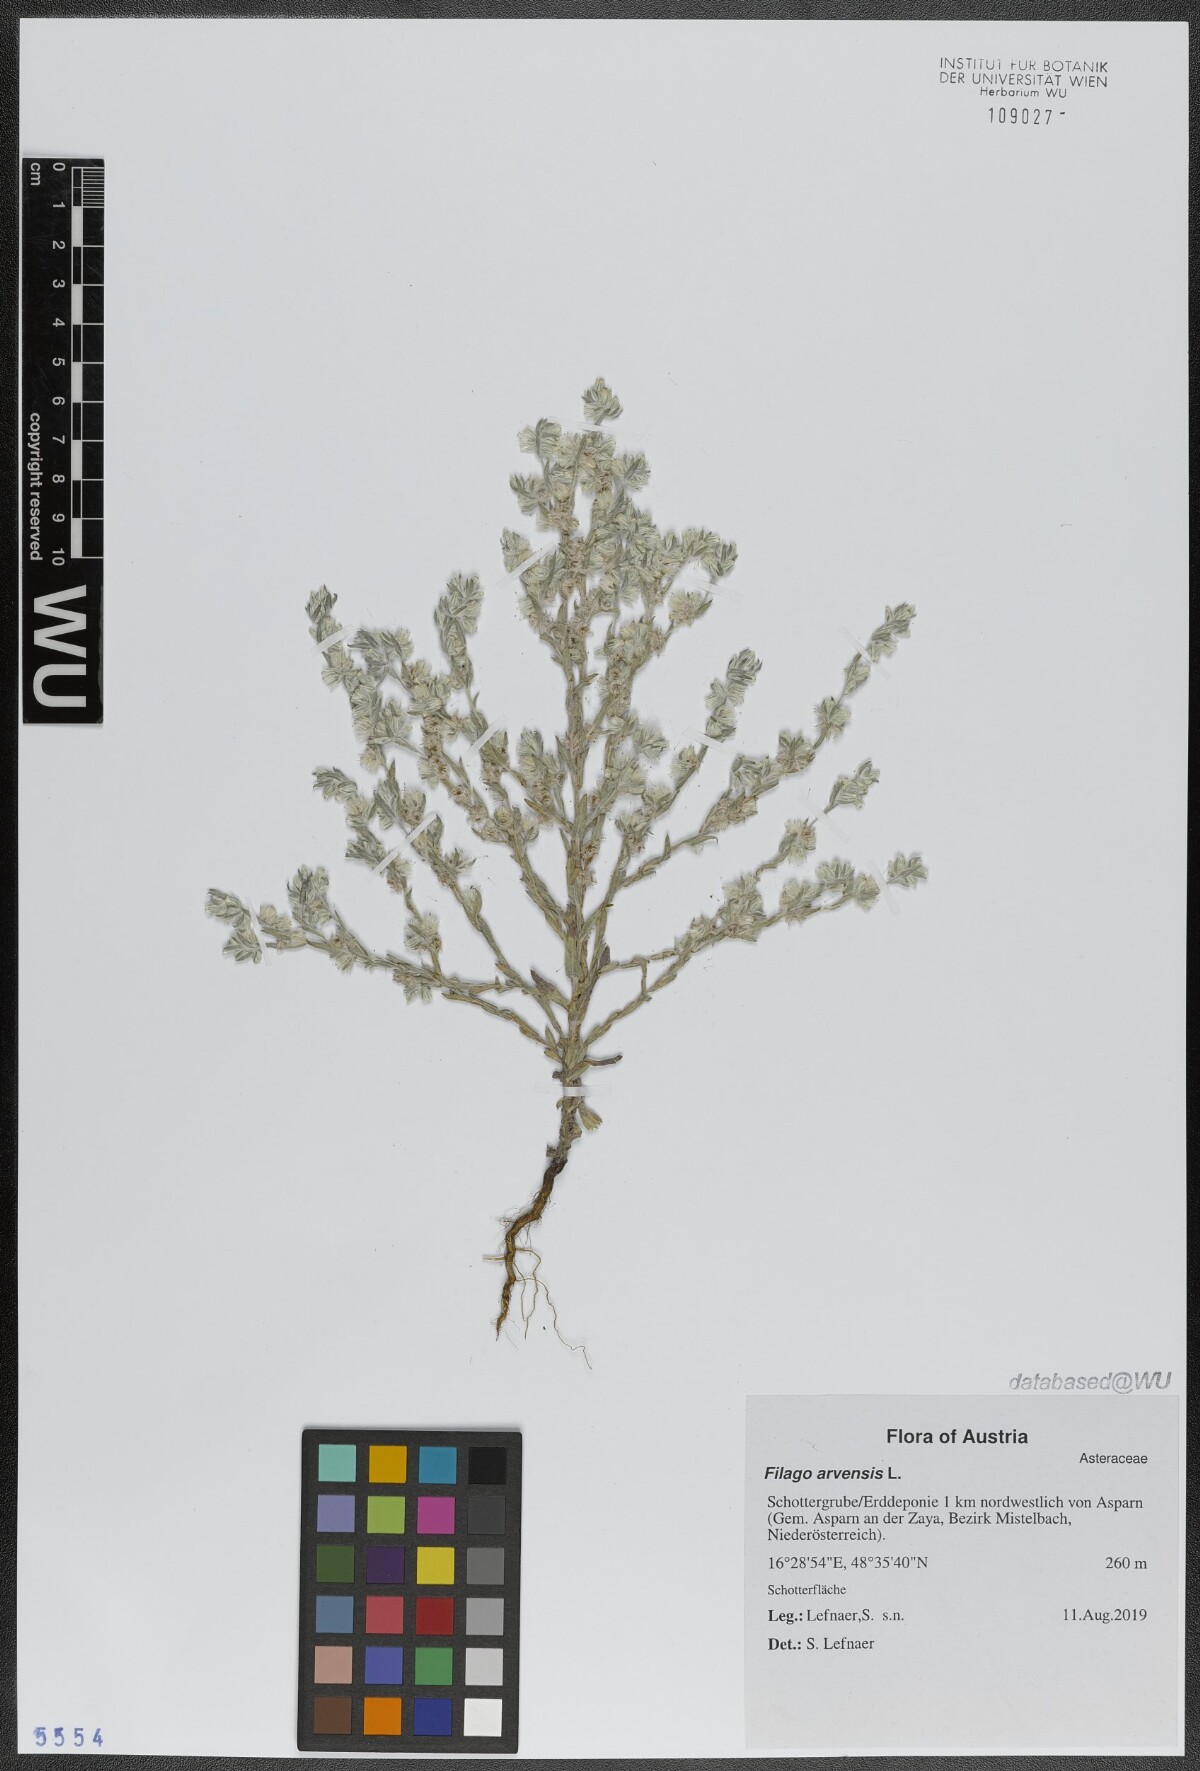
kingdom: Plantae
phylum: Tracheophyta
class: Magnoliopsida
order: Asterales
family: Asteraceae
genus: Filago
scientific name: Filago arvensis
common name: Field cudweed
